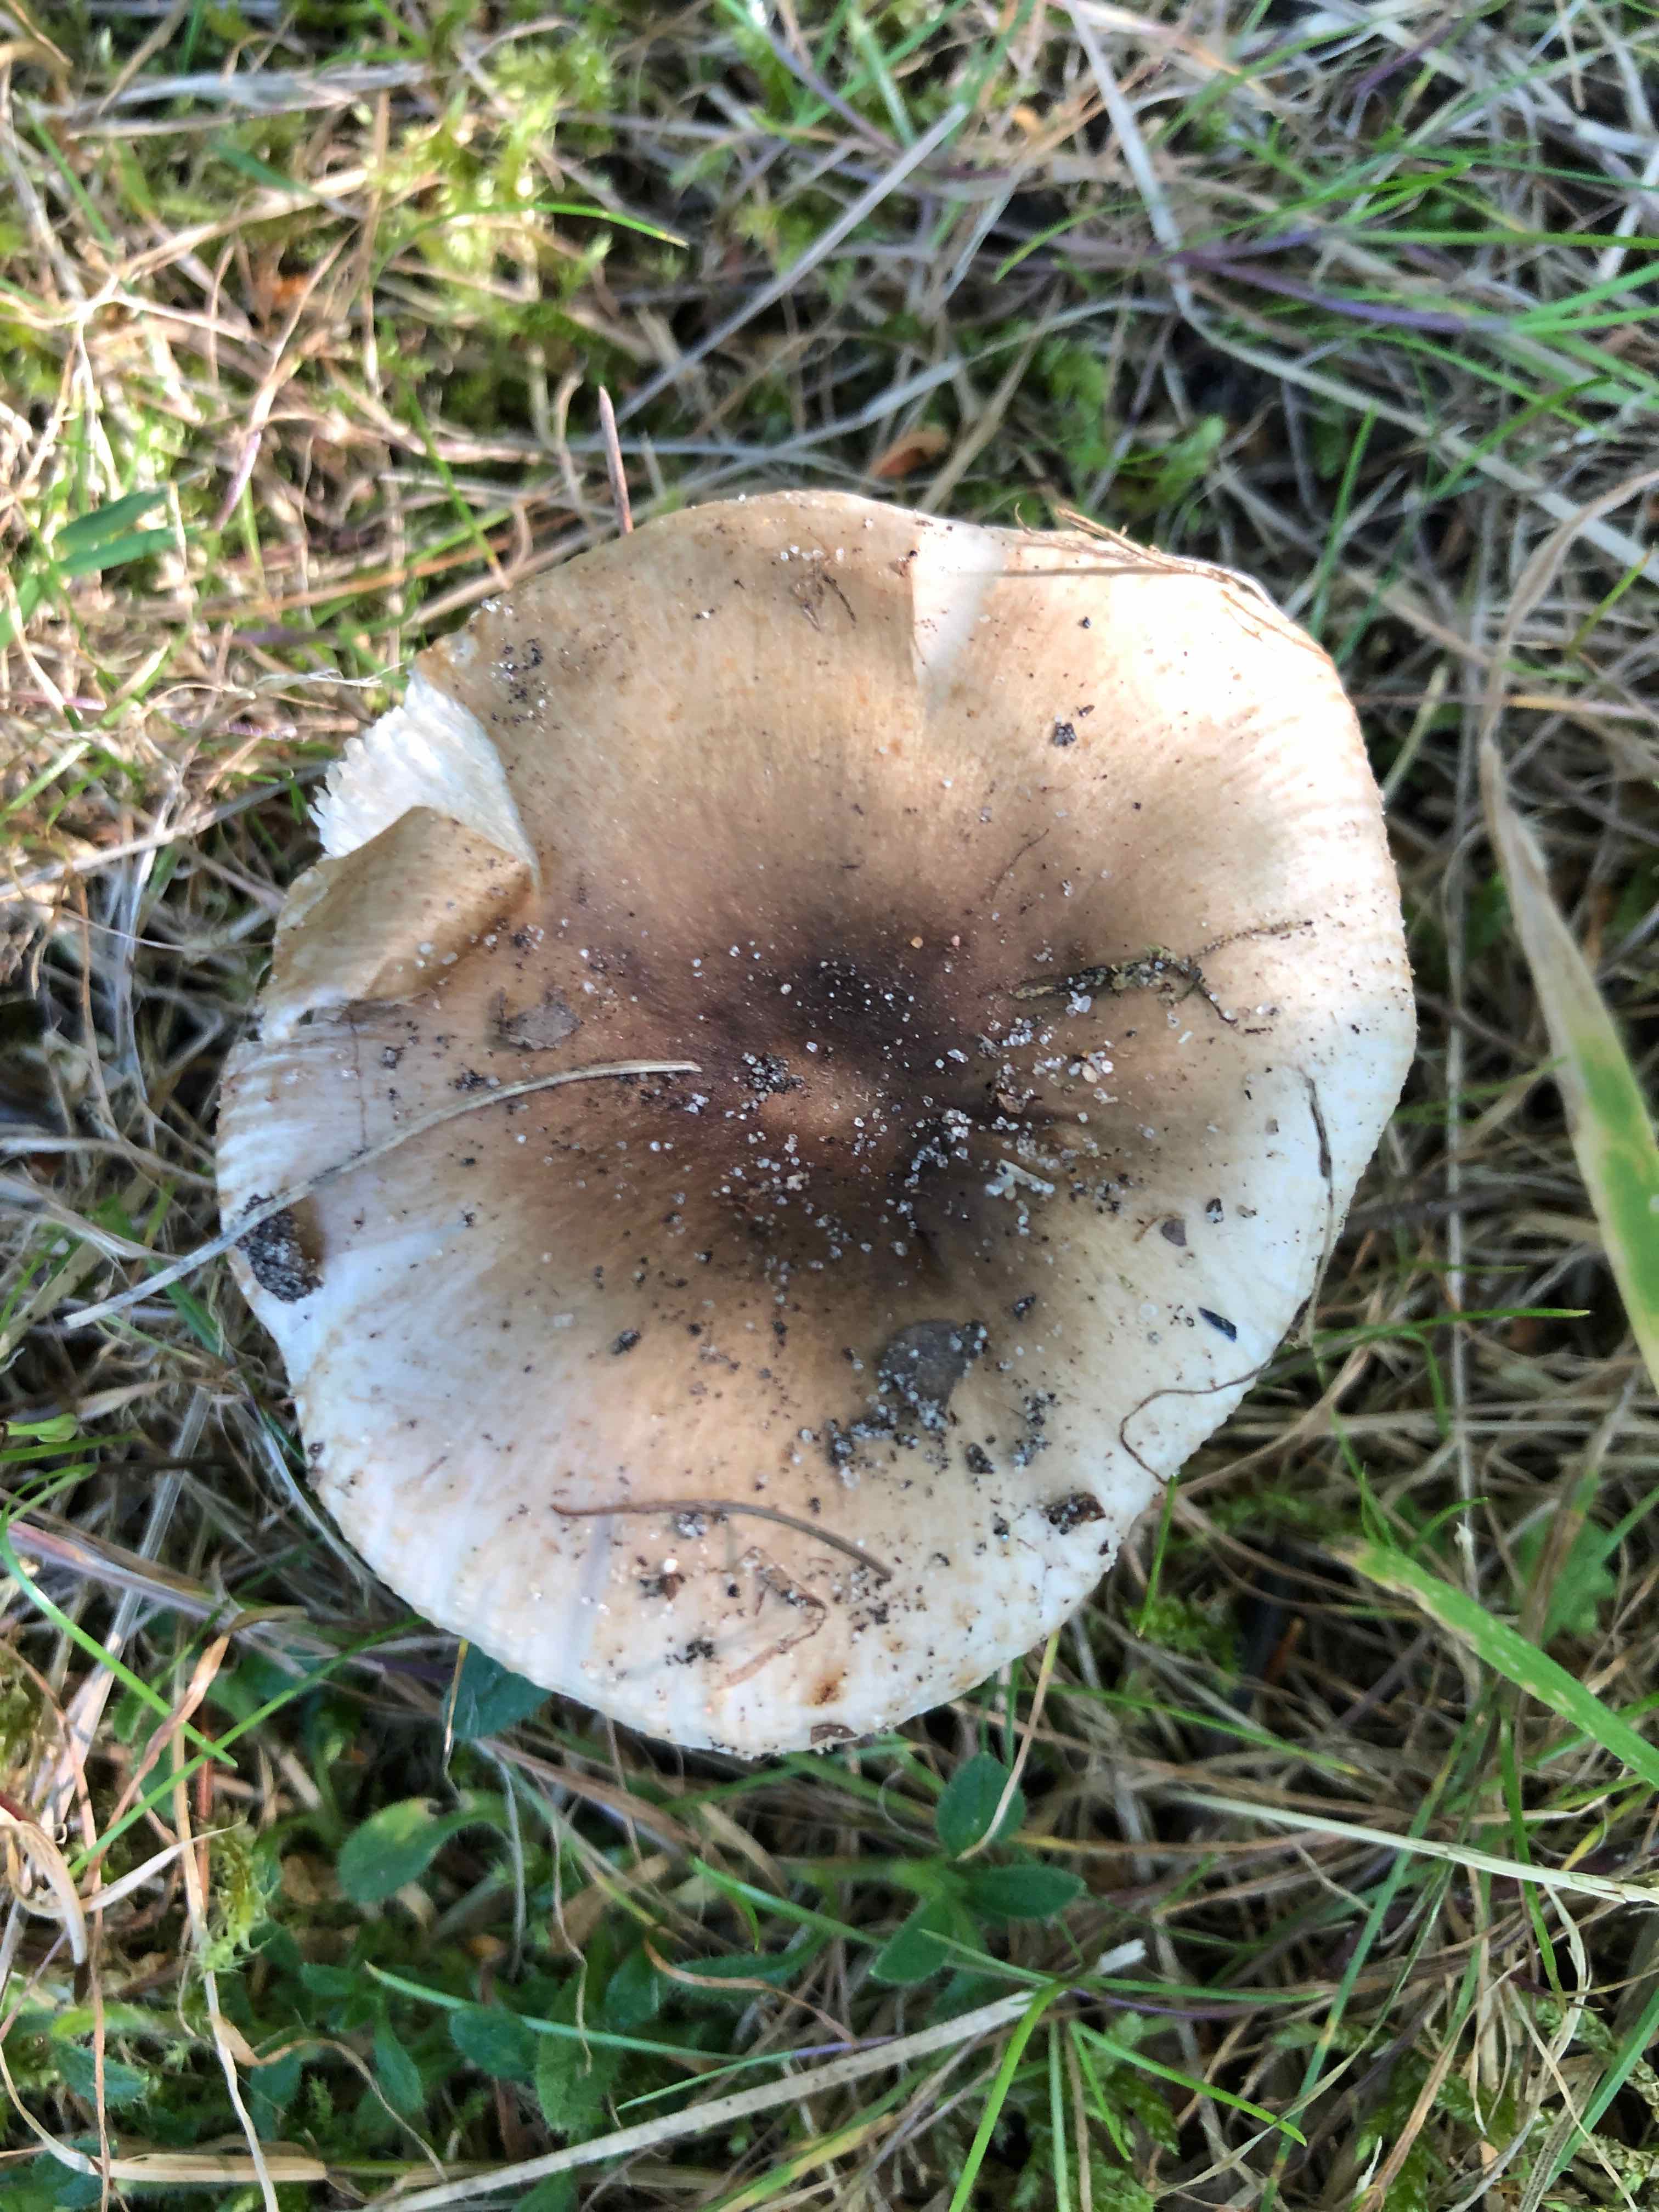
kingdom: Fungi
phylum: Basidiomycota
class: Agaricomycetes
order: Russulales
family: Russulaceae
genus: Russula
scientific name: Russula amoenolens
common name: skarp kam-skørhat
